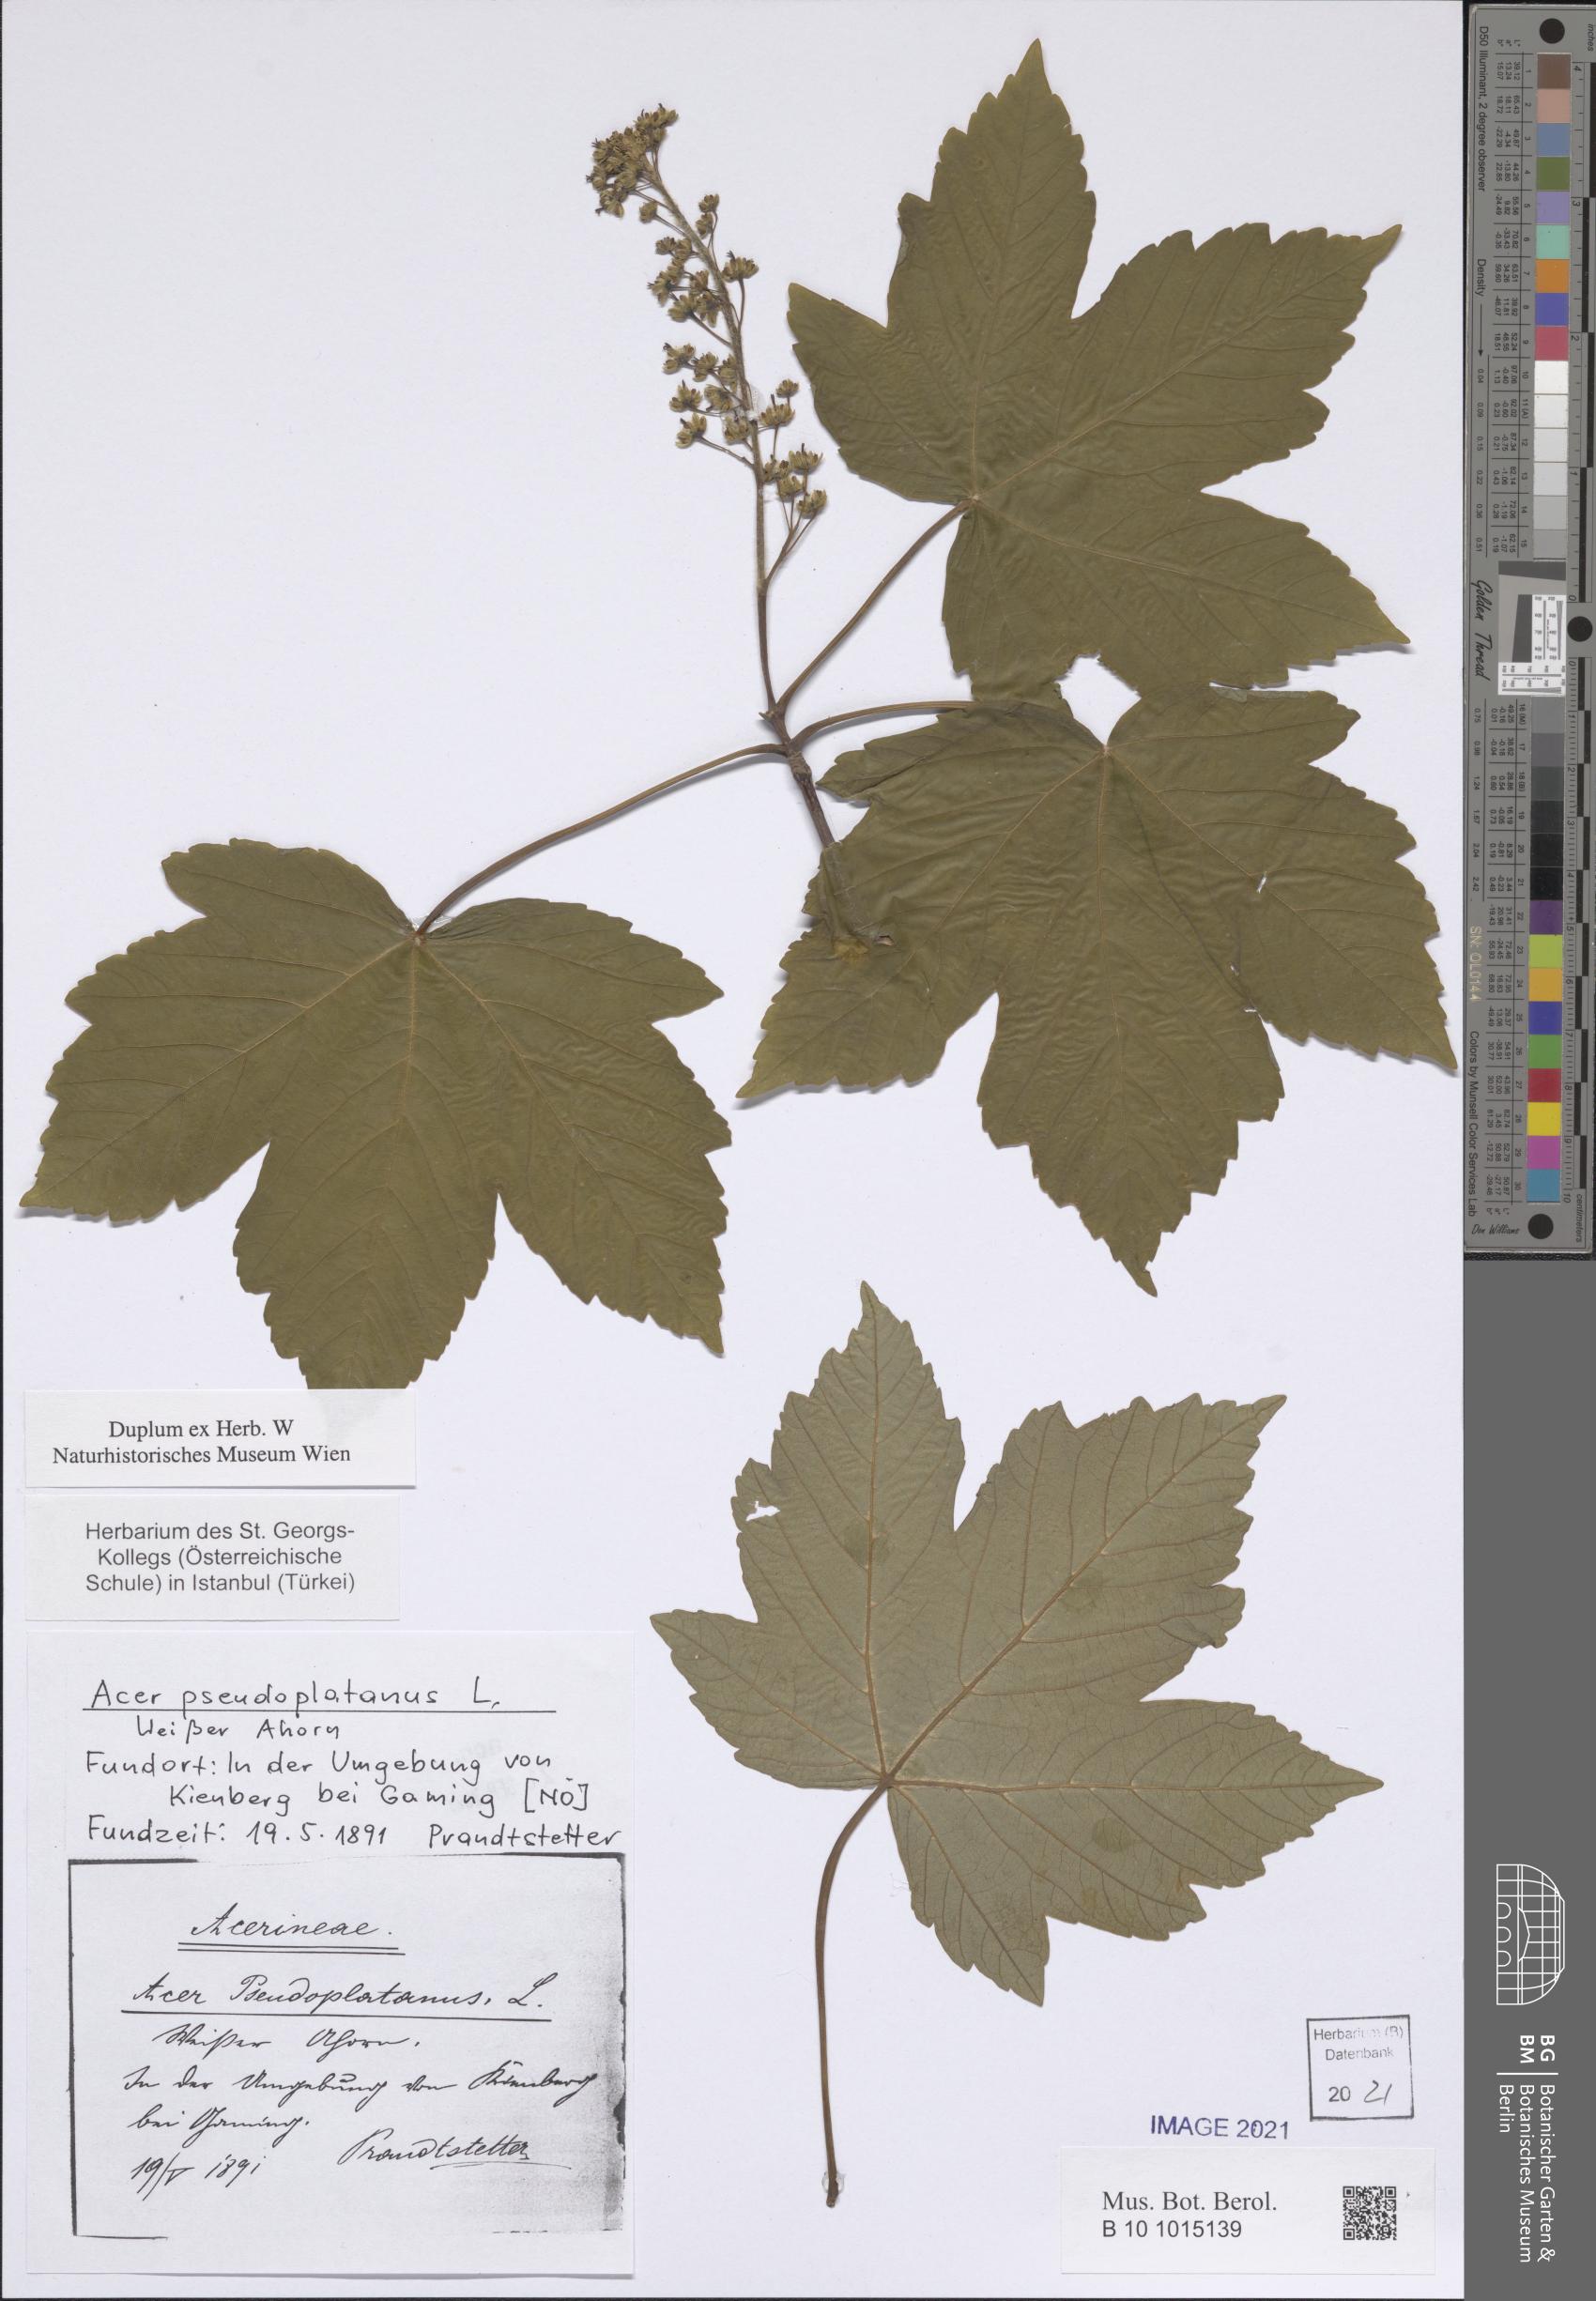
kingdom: Plantae
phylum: Tracheophyta
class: Magnoliopsida
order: Sapindales
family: Sapindaceae
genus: Acer
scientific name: Acer pseudoplatanus
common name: Sycamore
